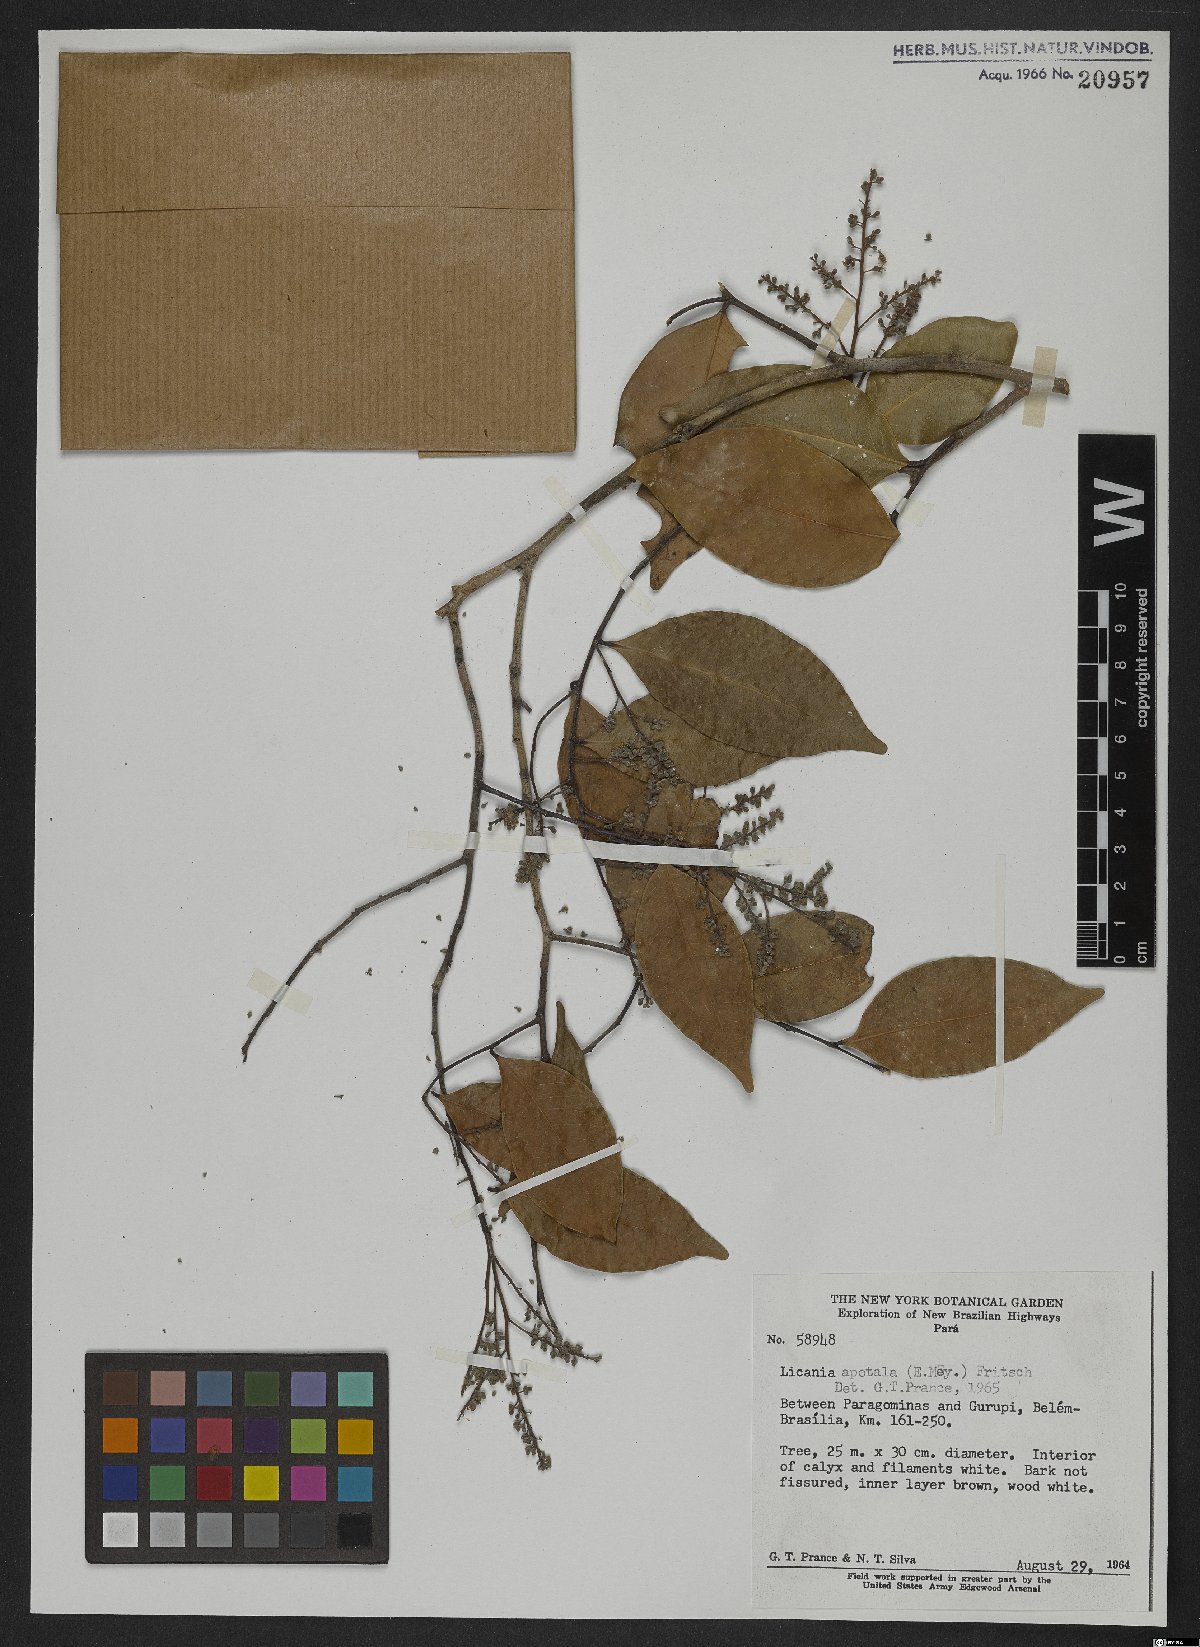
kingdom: Plantae
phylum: Tracheophyta
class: Magnoliopsida
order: Malpighiales
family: Chrysobalanaceae
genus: Leptobalanus
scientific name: Leptobalanus apetalus
